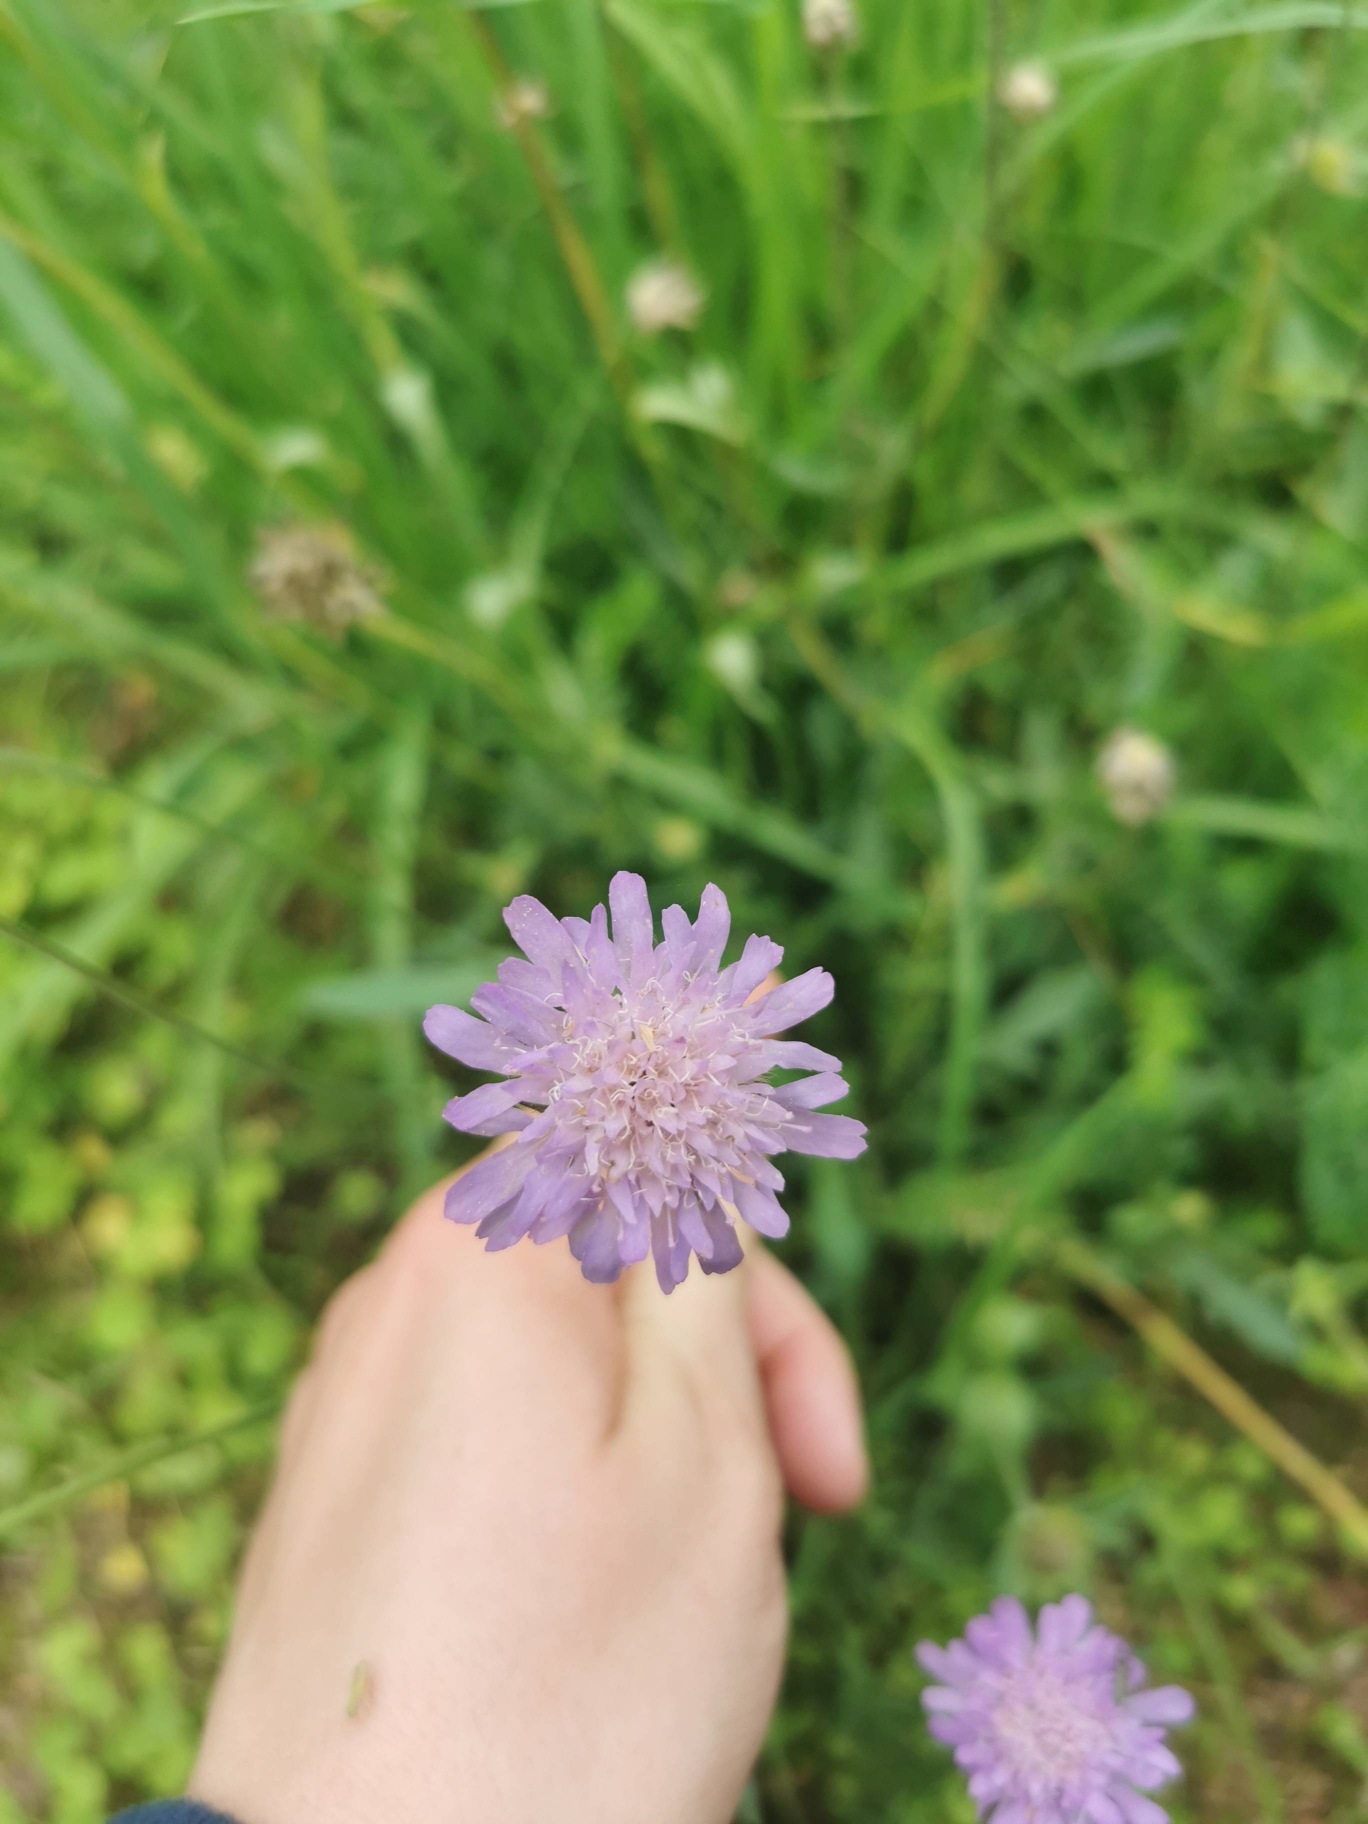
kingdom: Plantae
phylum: Tracheophyta
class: Magnoliopsida
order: Dipsacales
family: Caprifoliaceae
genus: Knautia
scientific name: Knautia arvensis
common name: Blåhat
